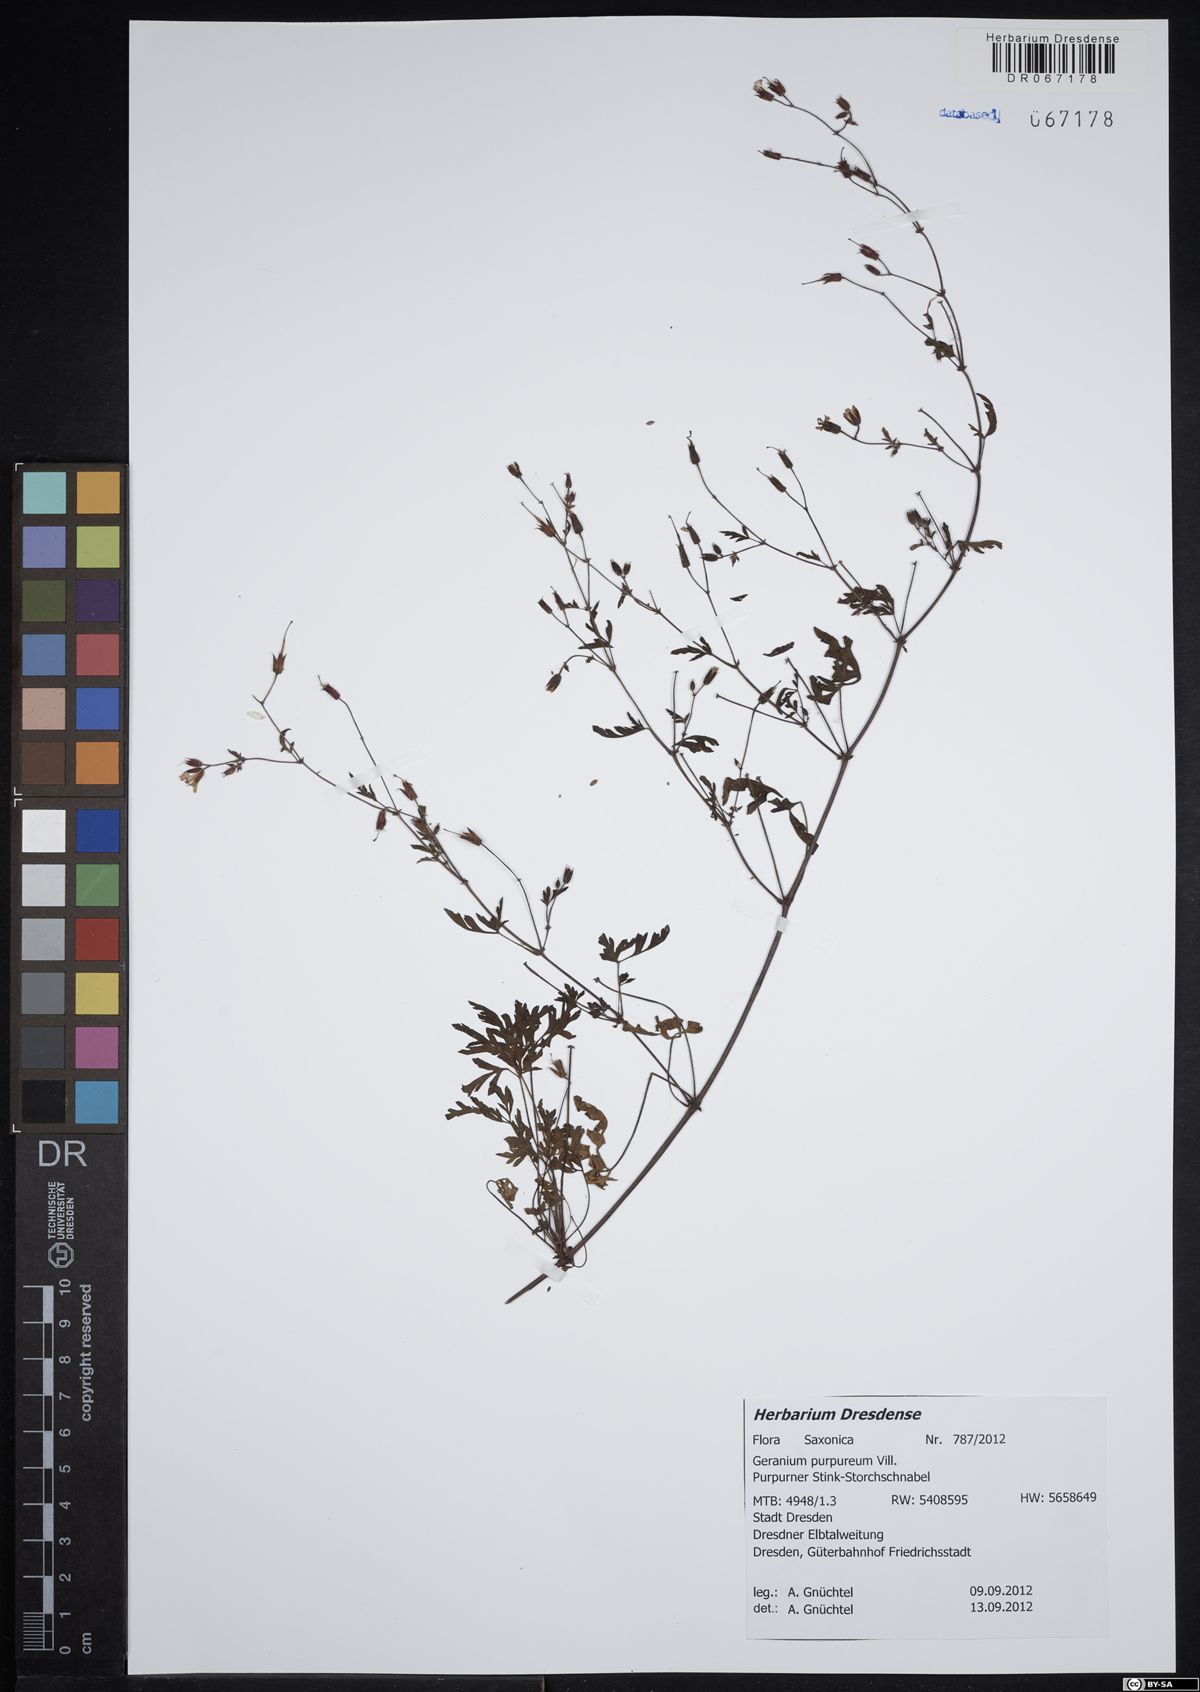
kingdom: Plantae
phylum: Tracheophyta
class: Magnoliopsida
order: Geraniales
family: Geraniaceae
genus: Geranium
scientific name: Geranium purpureum
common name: Little-robin
